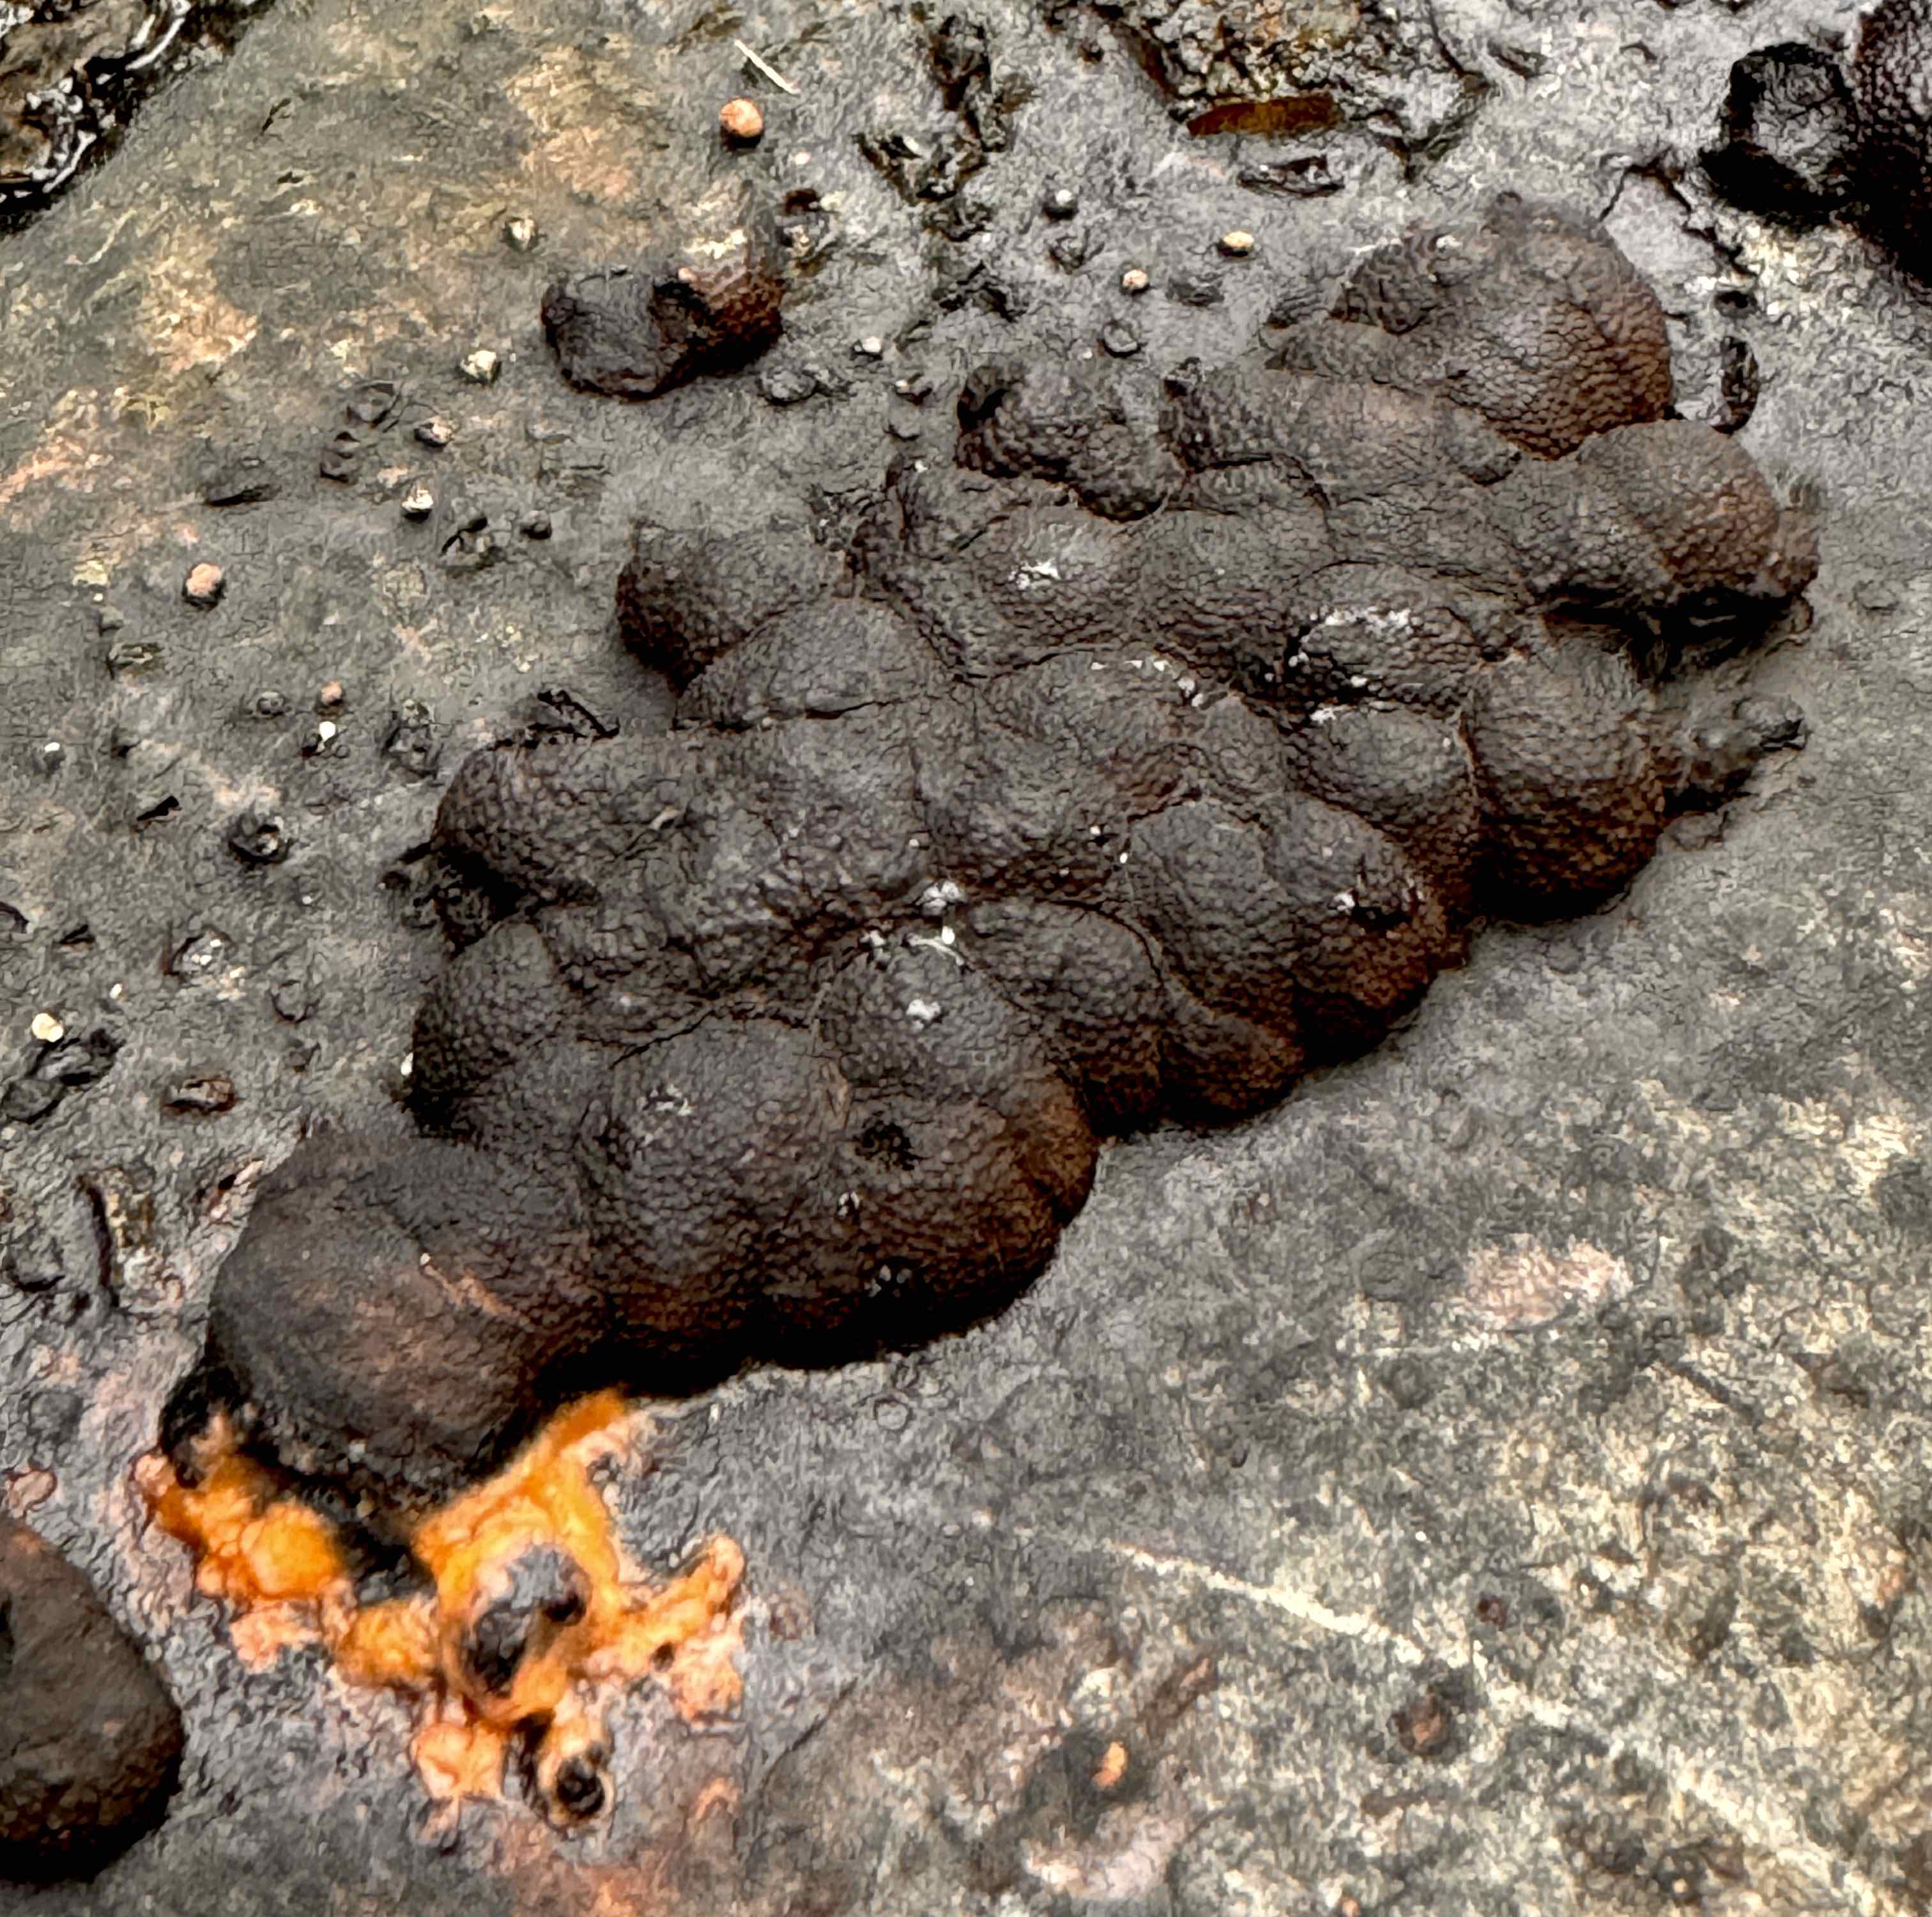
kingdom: Fungi
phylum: Ascomycota
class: Sordariomycetes
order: Xylariales
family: Hypoxylaceae
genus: Jackrogersella
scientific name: Jackrogersella cohaerens
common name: sammenflydende kulbær
